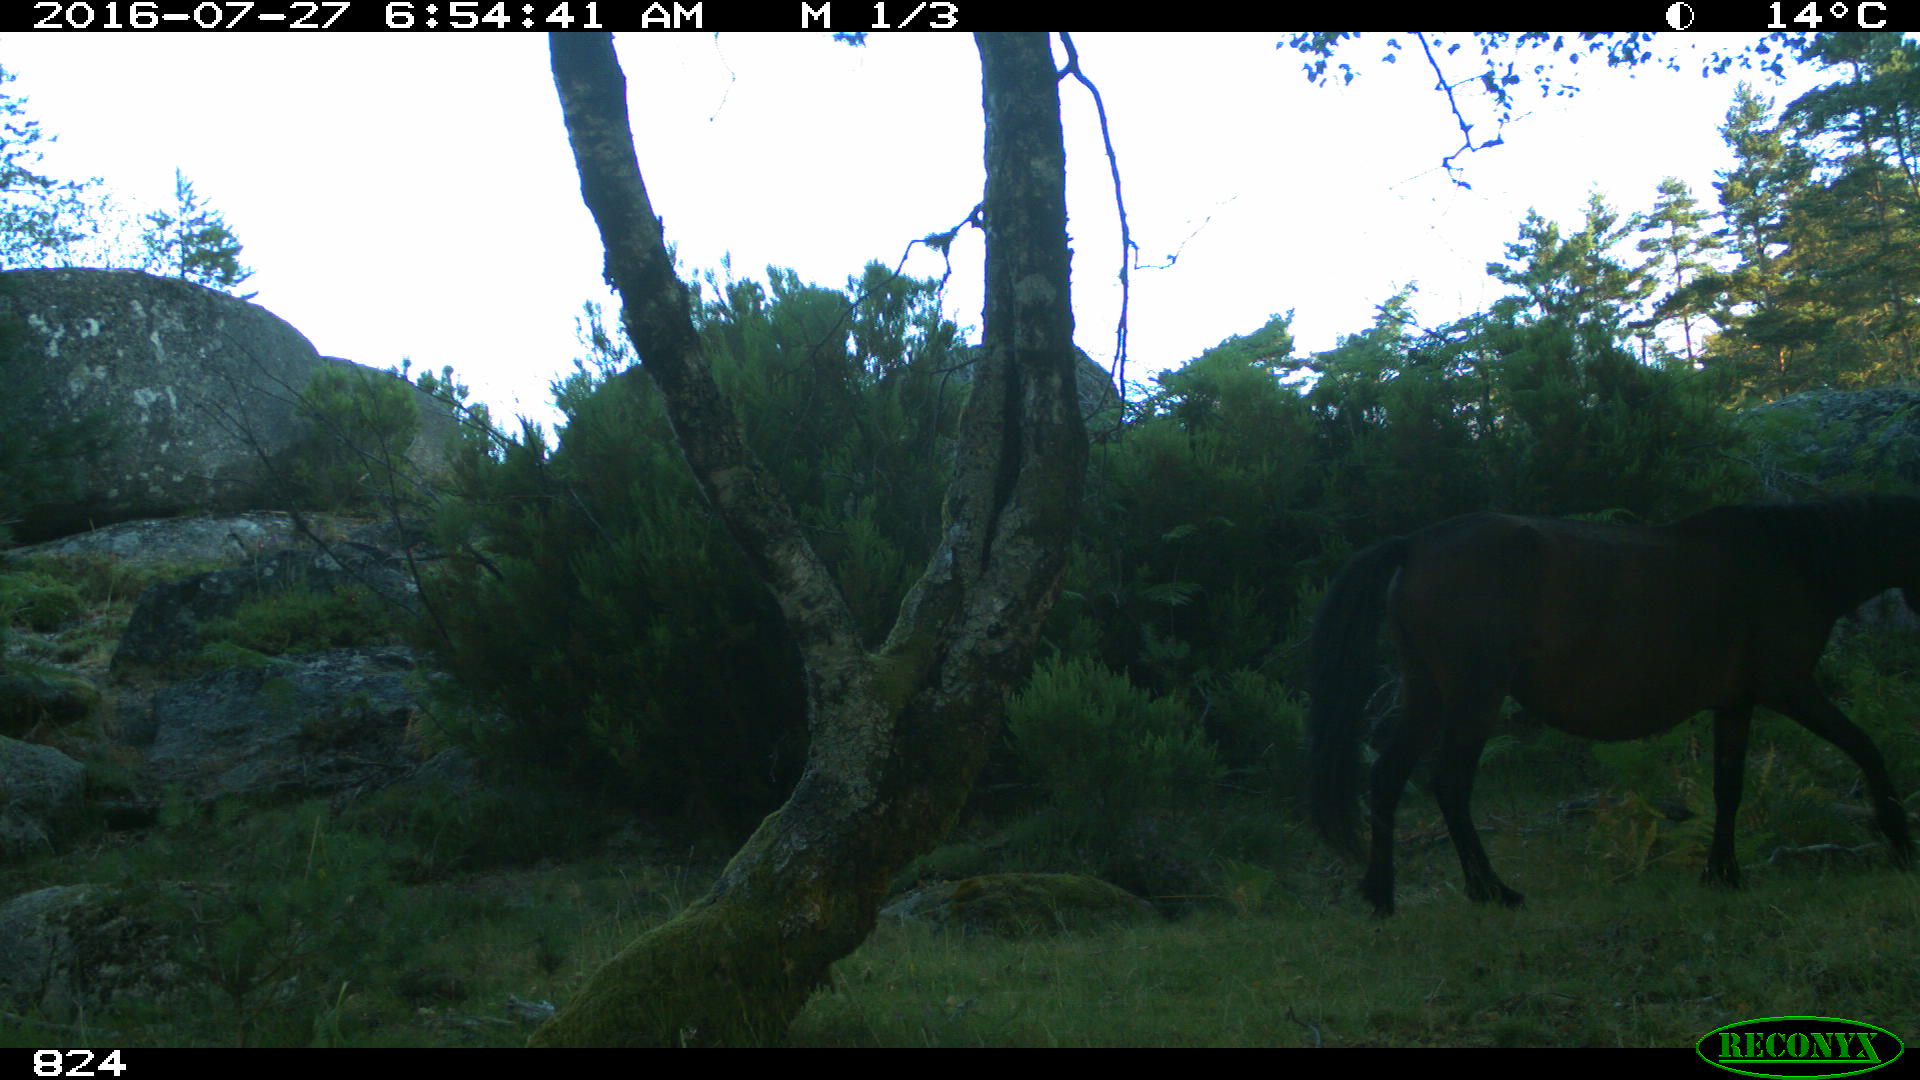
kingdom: Animalia
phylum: Chordata
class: Mammalia
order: Perissodactyla
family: Equidae
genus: Equus
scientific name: Equus caballus
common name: Horse
